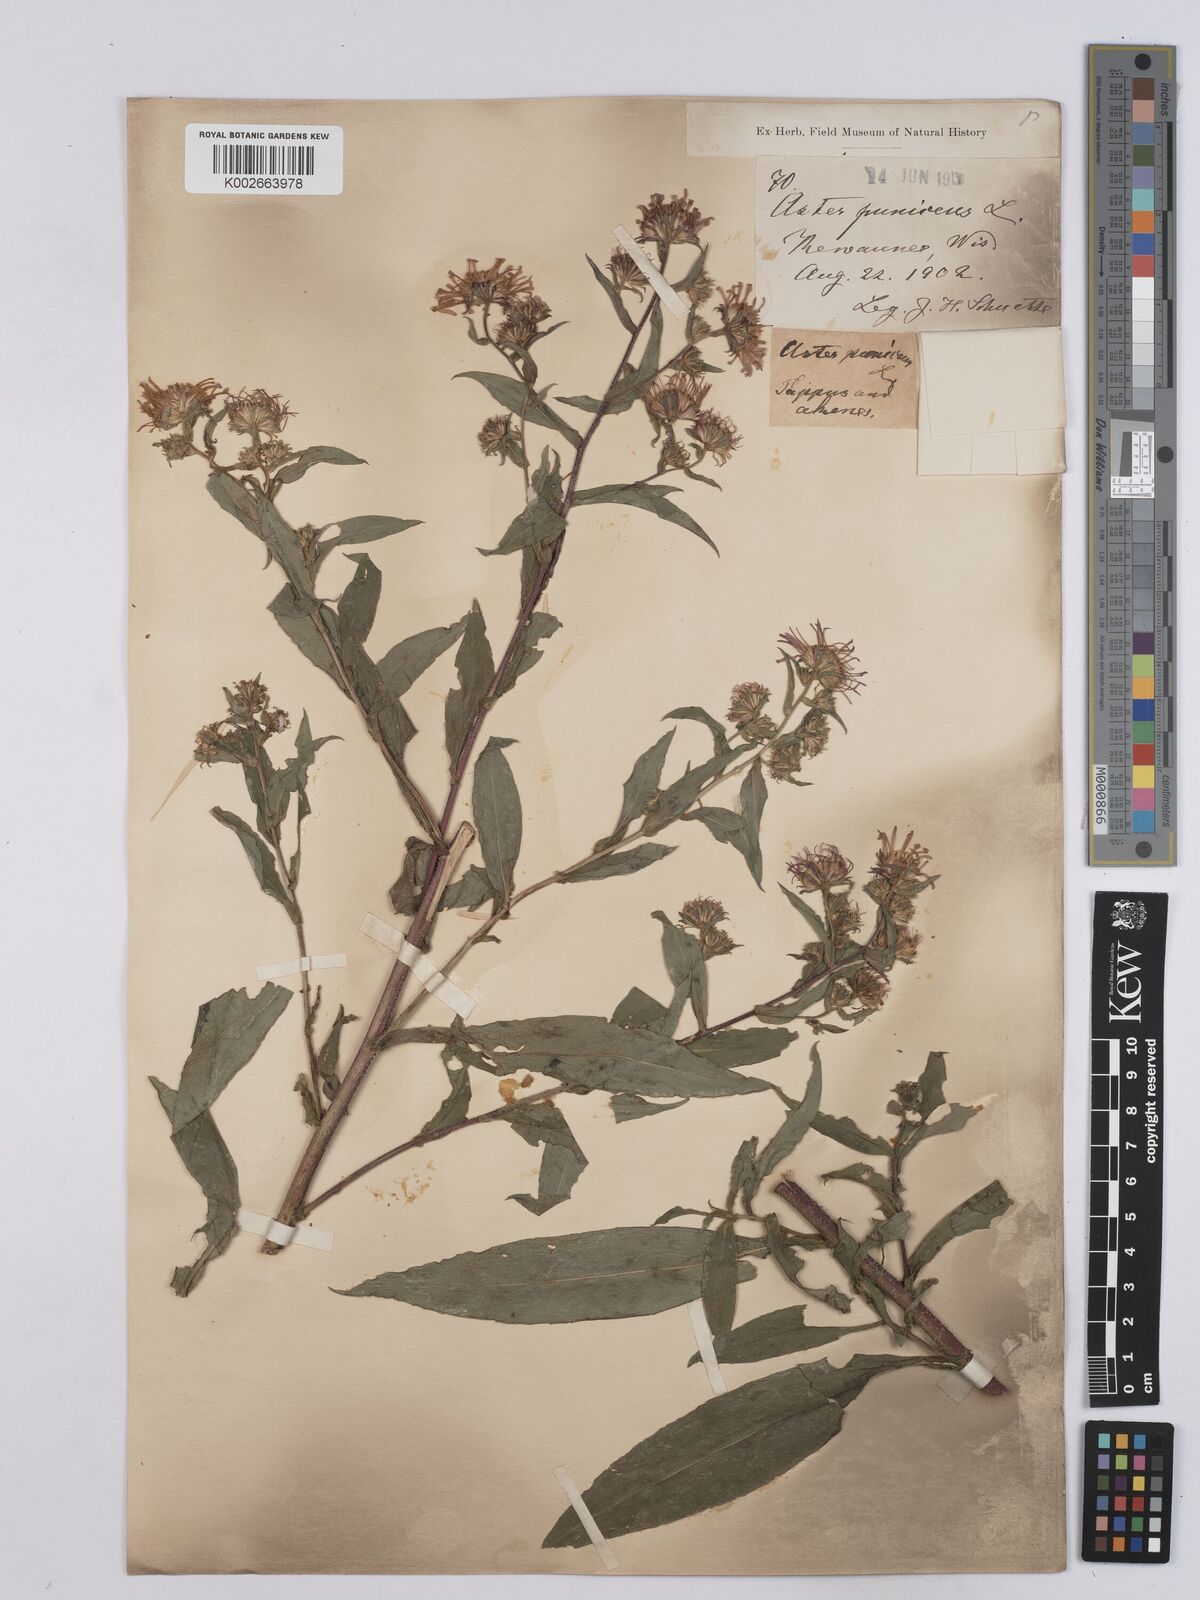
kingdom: Plantae
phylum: Tracheophyta
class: Magnoliopsida
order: Asterales
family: Asteraceae
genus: Symphyotrichum
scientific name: Symphyotrichum puniceum
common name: Bog aster
